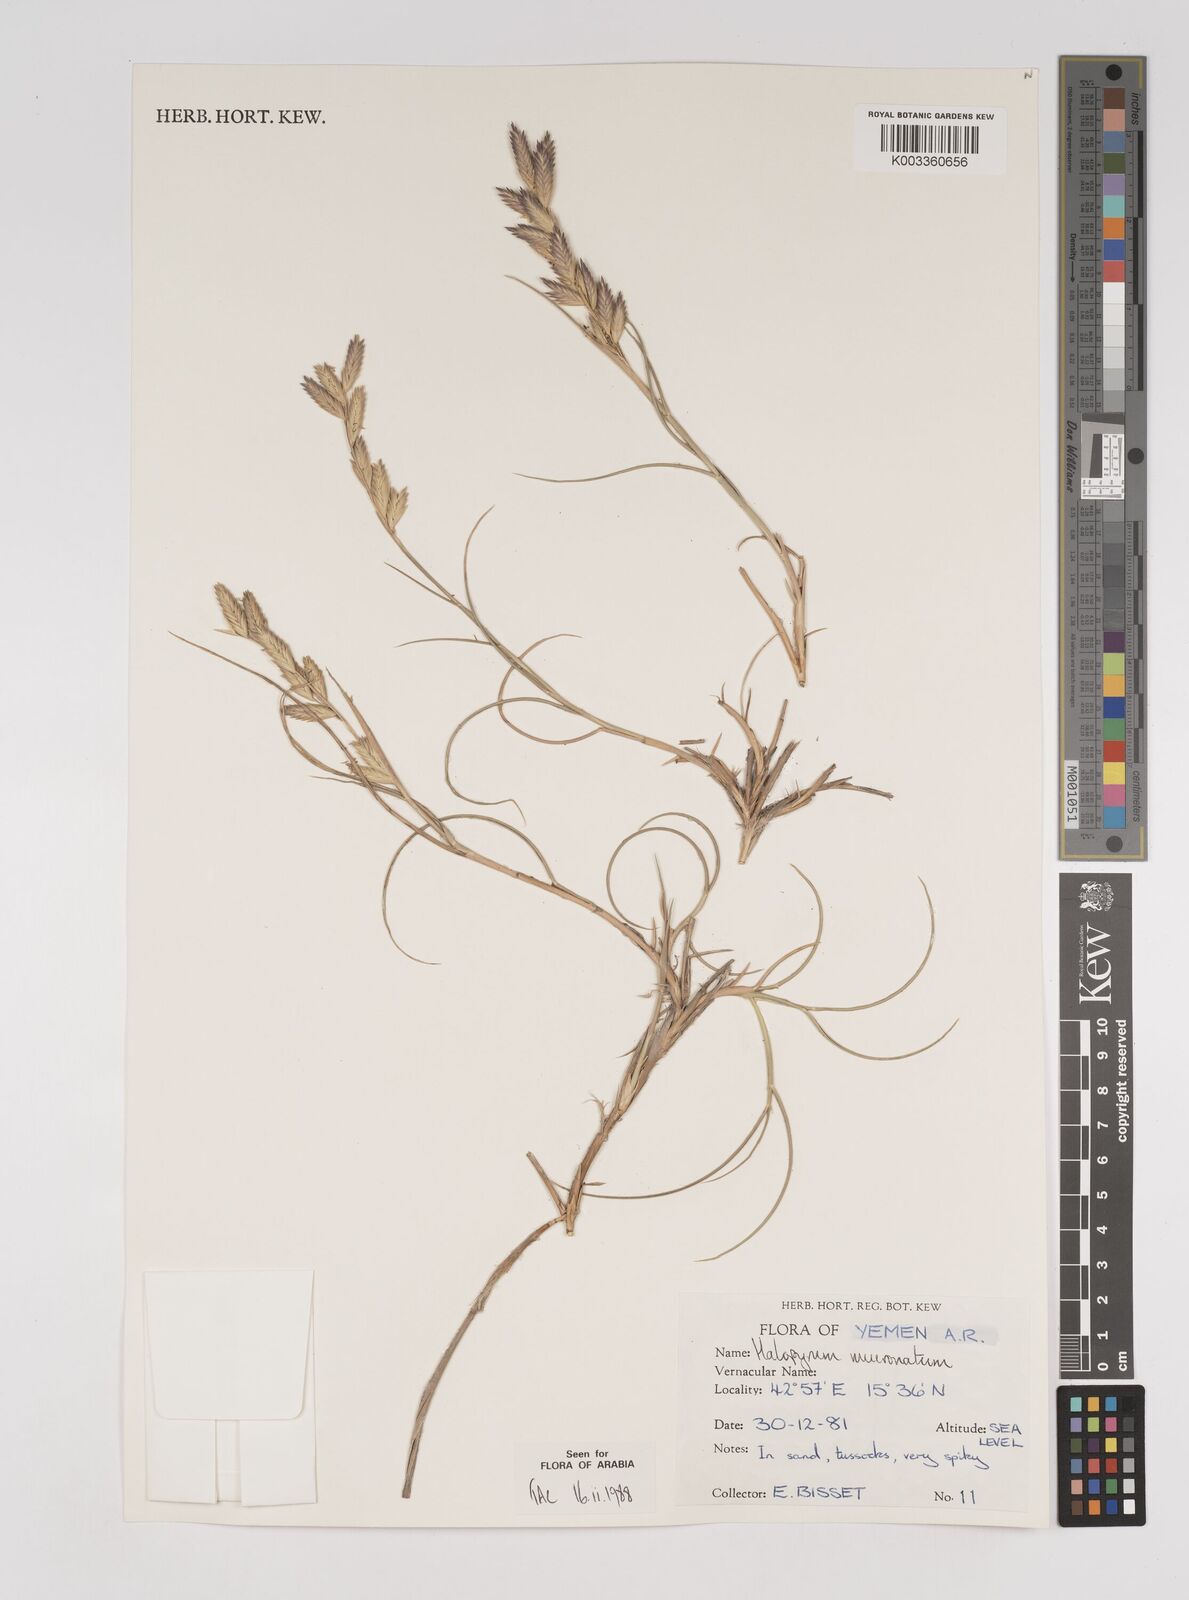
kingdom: Plantae
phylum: Tracheophyta
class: Liliopsida
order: Poales
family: Poaceae
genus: Halopyrum
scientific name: Halopyrum mucronatum
